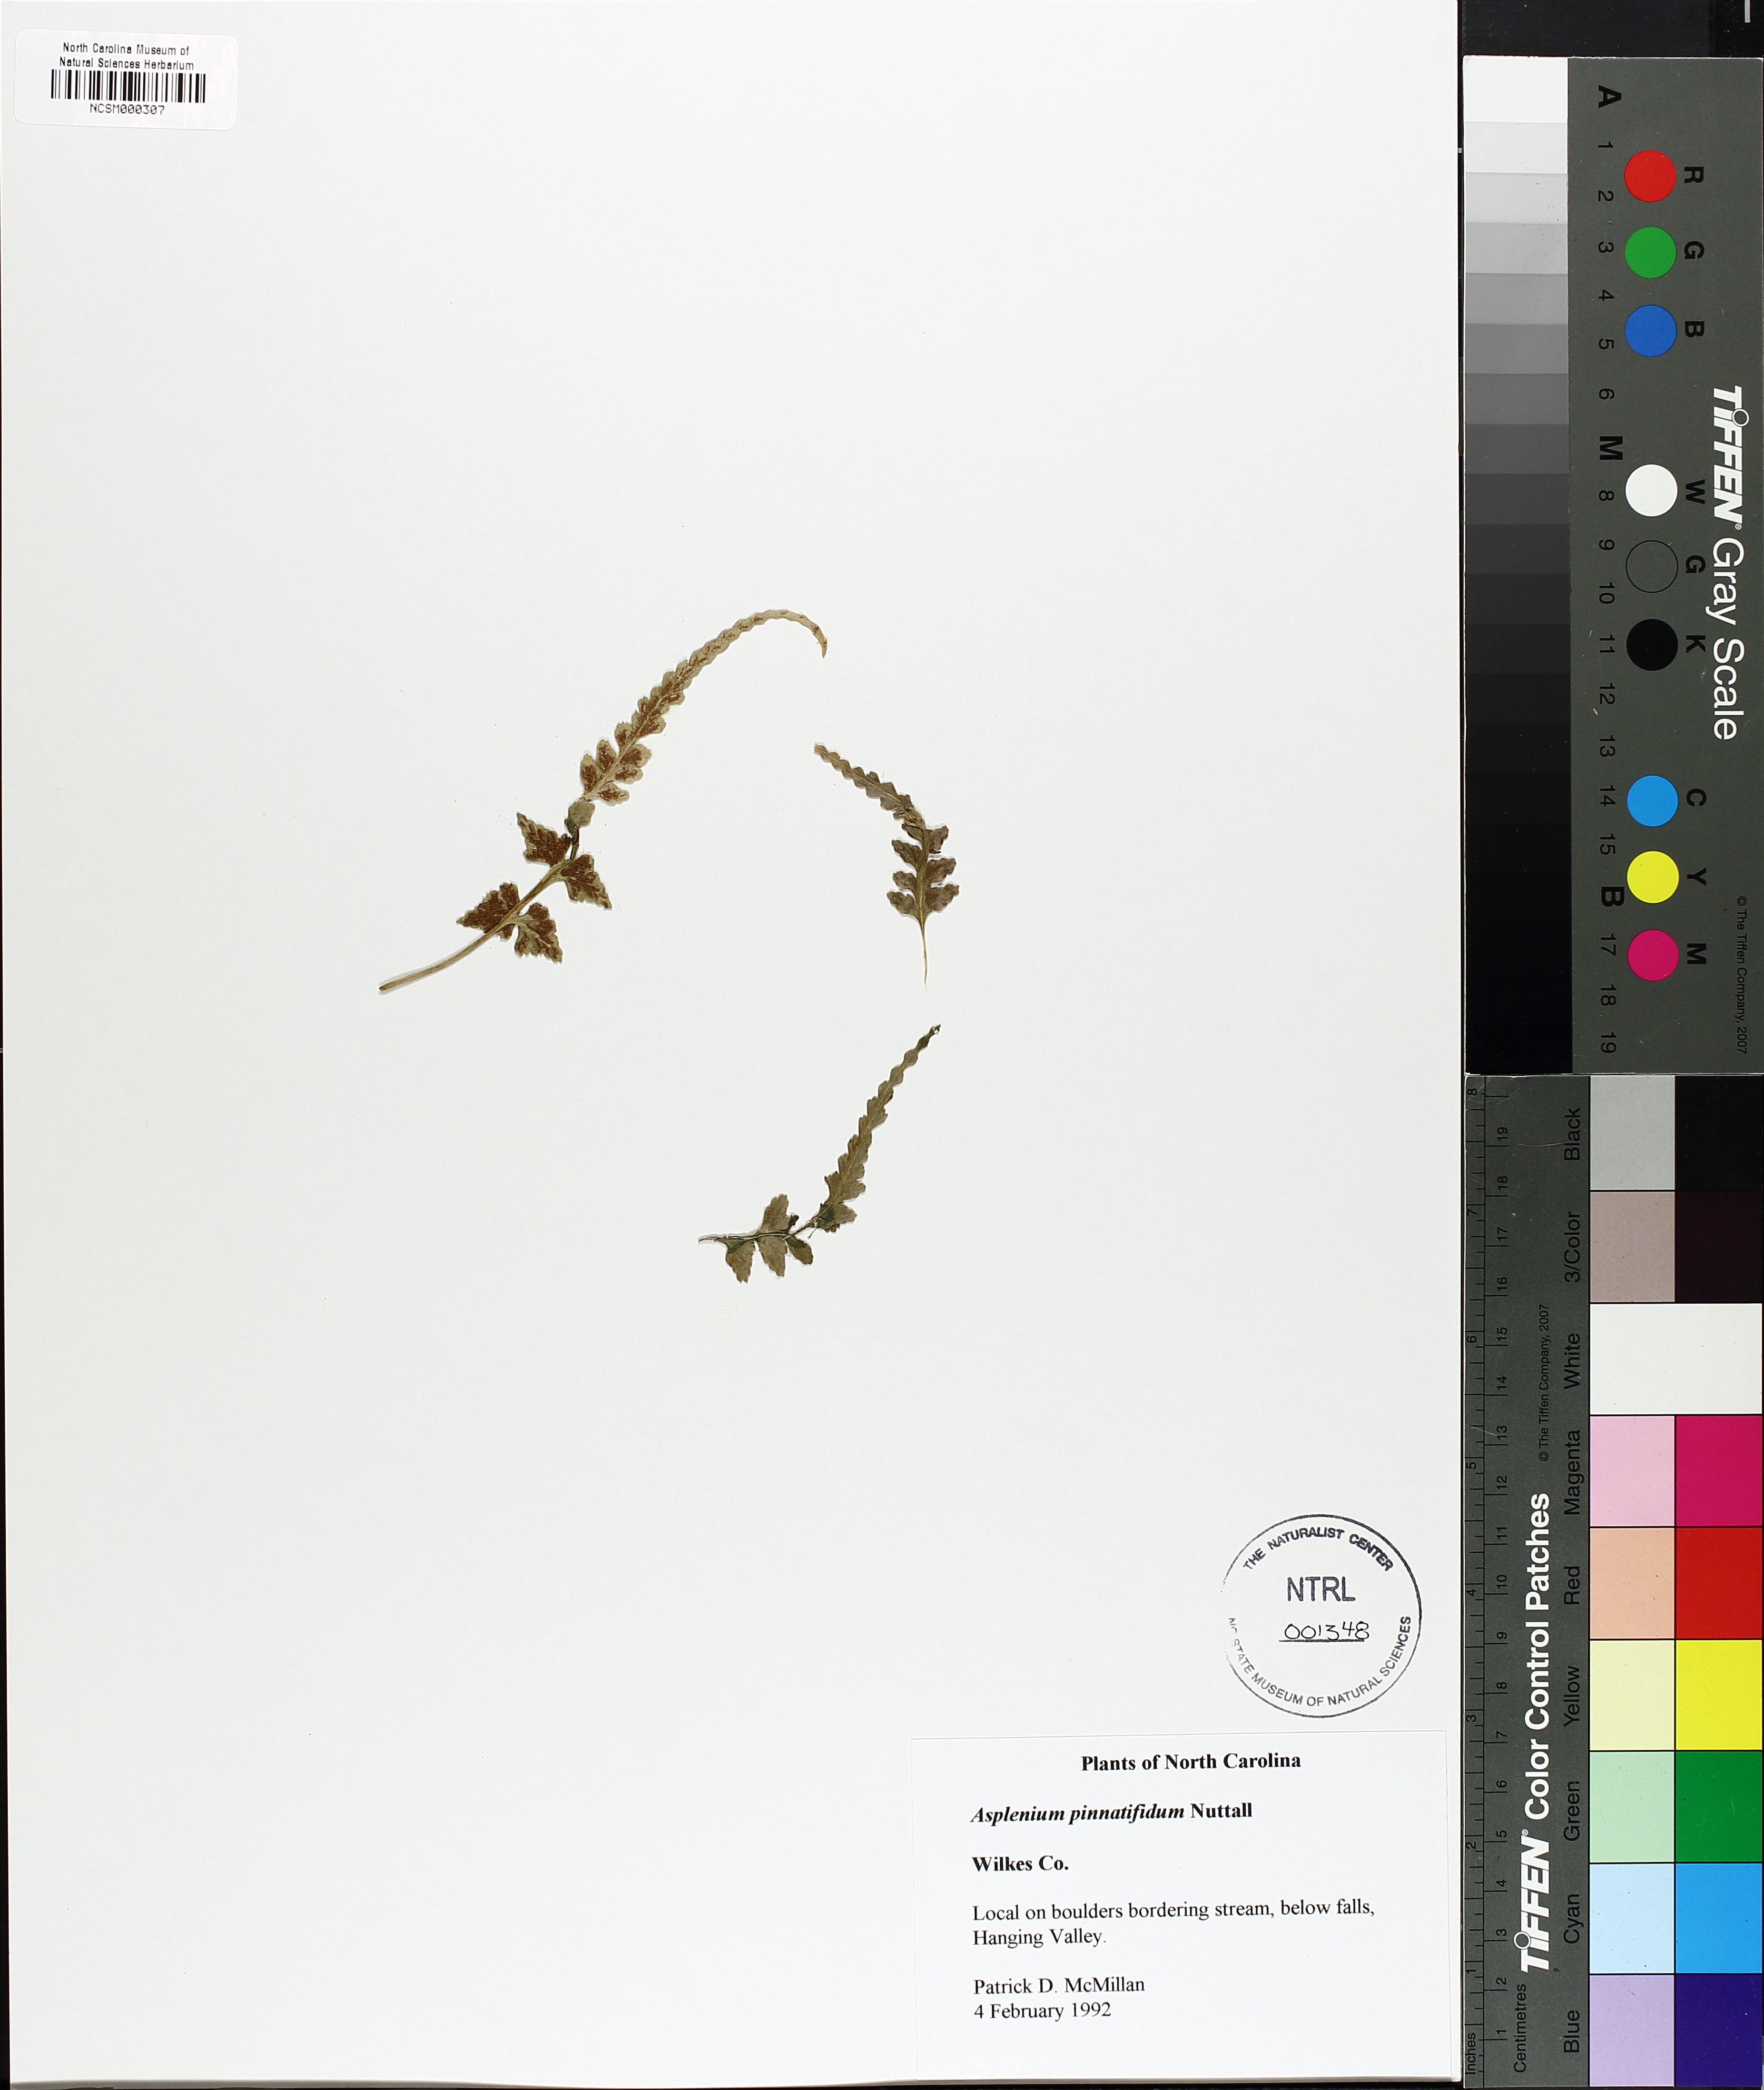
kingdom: Plantae
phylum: Tracheophyta
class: Polypodiopsida
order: Polypodiales
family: Aspleniaceae
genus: Asplenium
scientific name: Asplenium pinnatifidum
